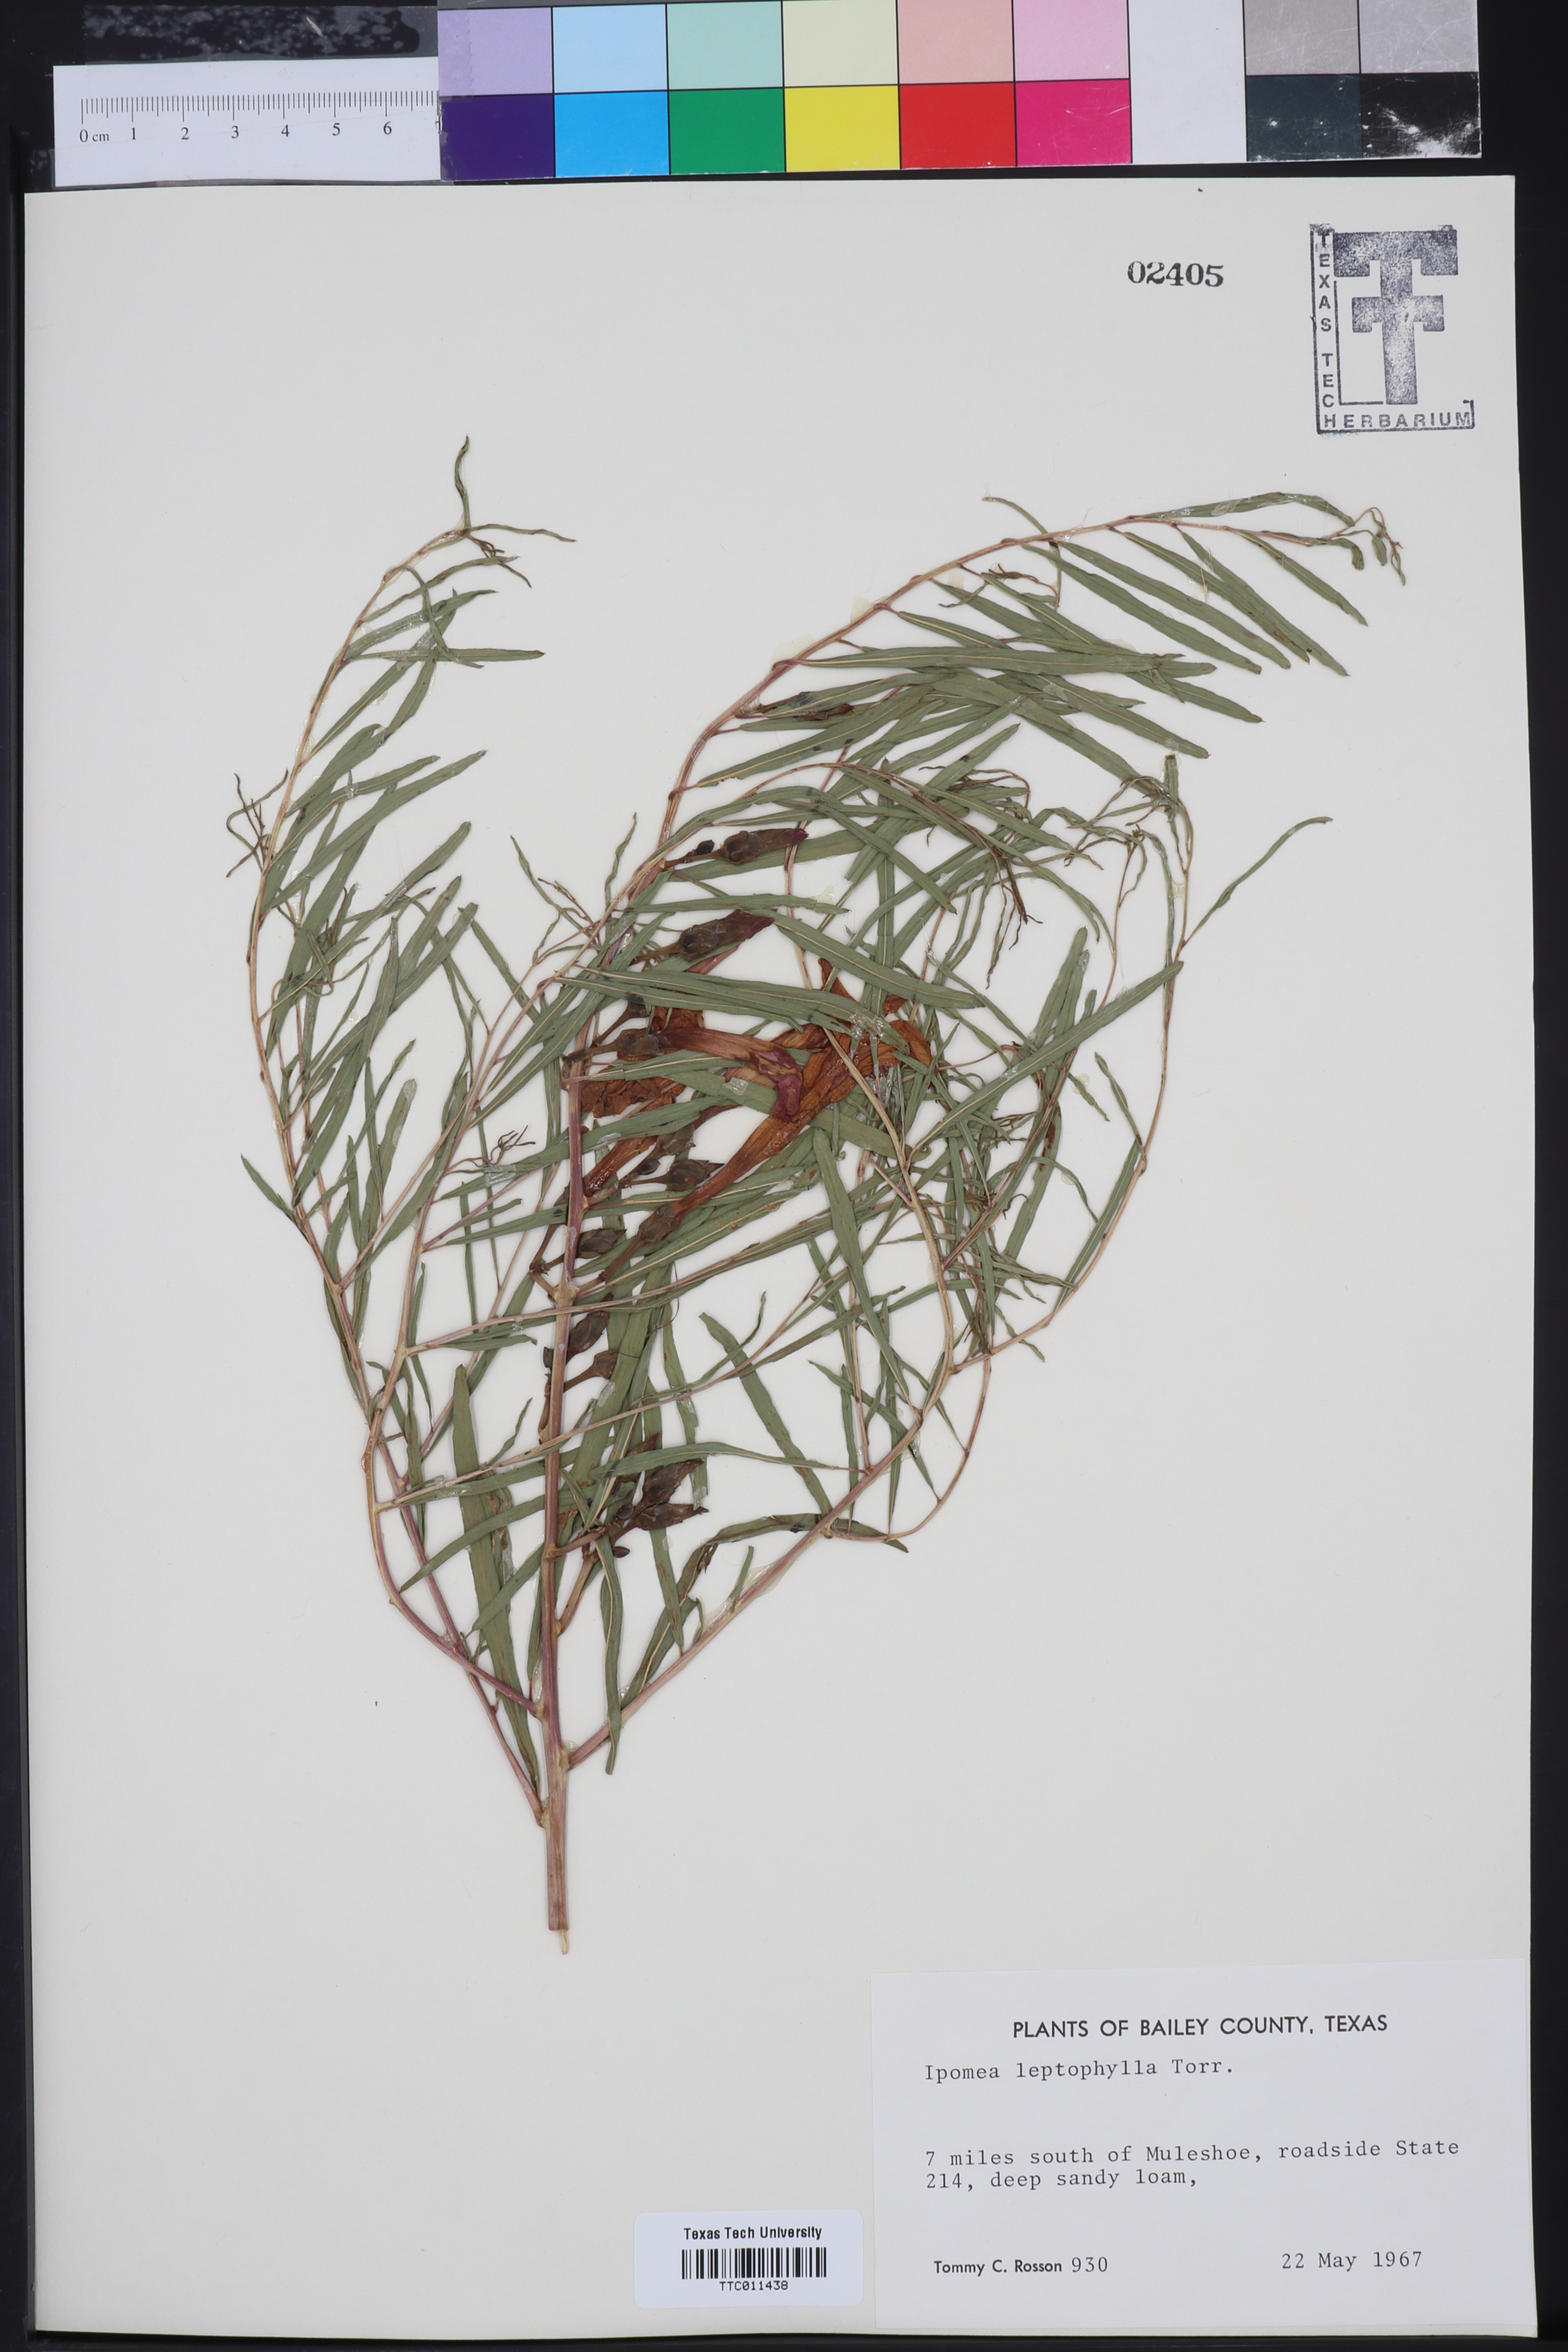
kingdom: Plantae
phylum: Tracheophyta
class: Magnoliopsida
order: Solanales
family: Convolvulaceae
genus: Ipomoea
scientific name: Ipomoea leptophylla
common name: Bush moonflower
